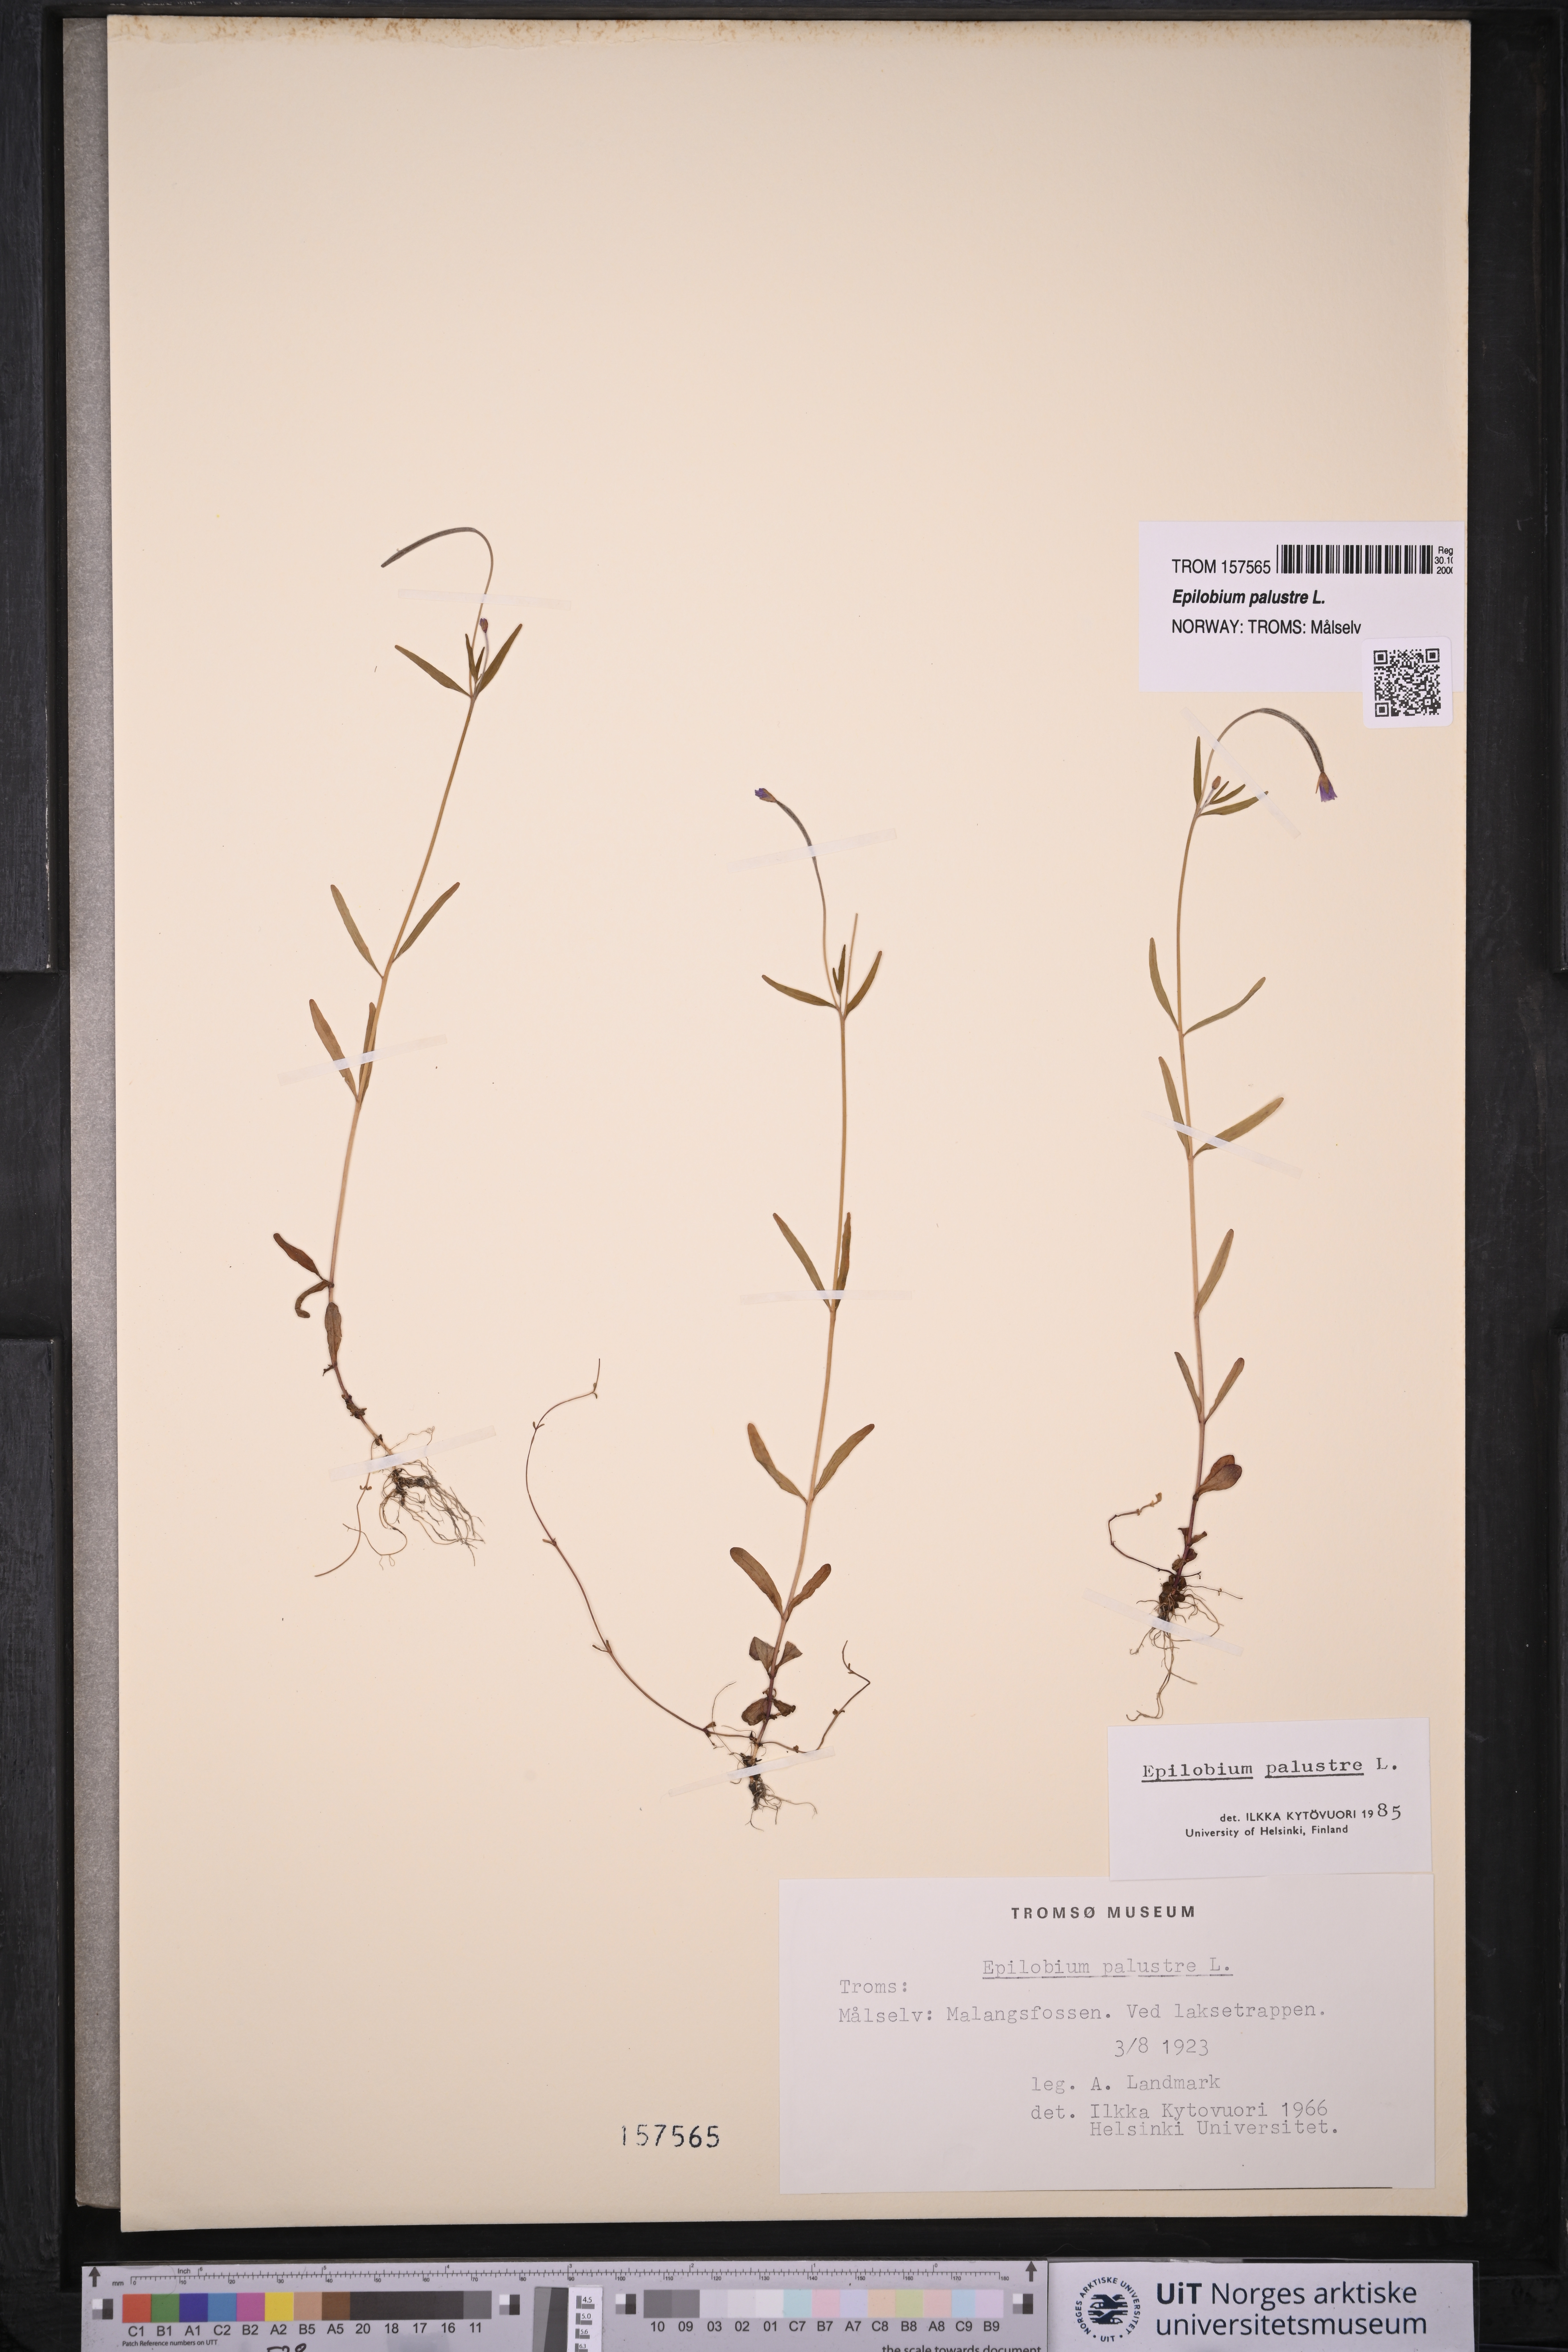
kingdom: Plantae
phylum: Tracheophyta
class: Magnoliopsida
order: Myrtales
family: Onagraceae
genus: Epilobium
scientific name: Epilobium palustre
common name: Marsh willowherb
